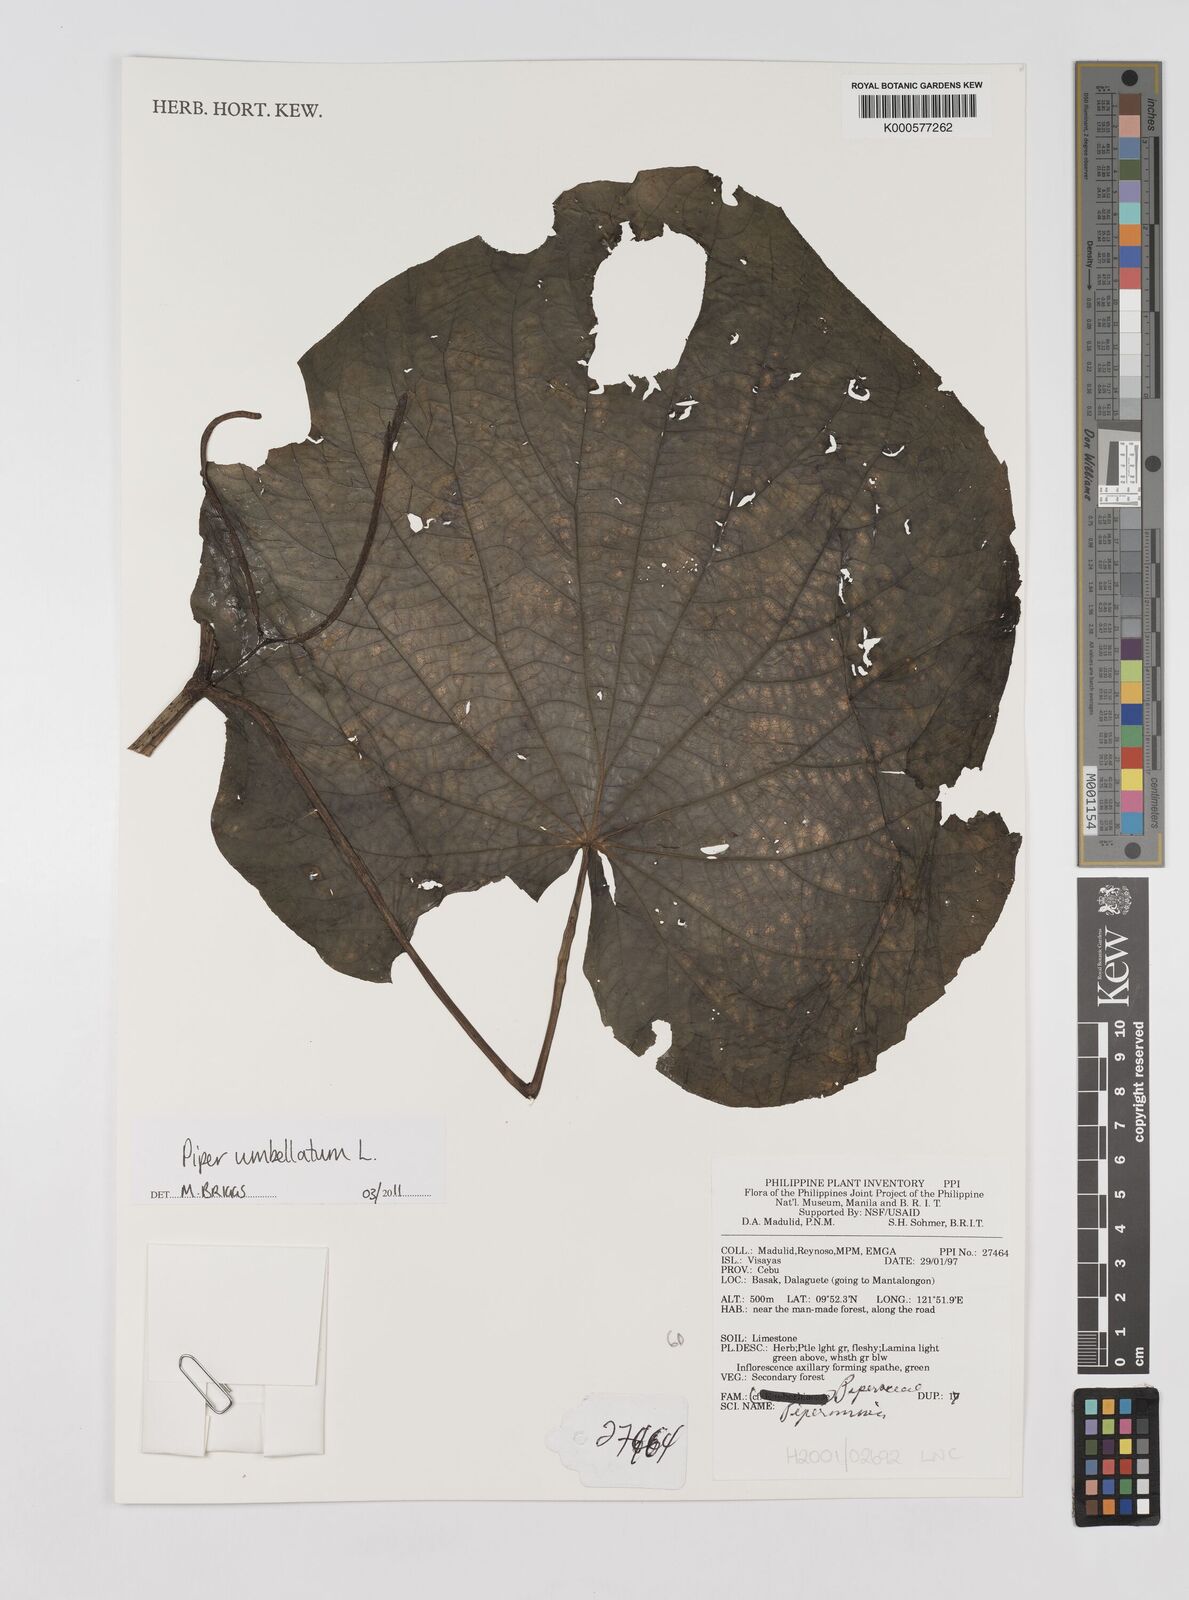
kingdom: Plantae
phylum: Tracheophyta
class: Magnoliopsida
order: Piperales
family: Piperaceae
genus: Piper
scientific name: Piper umbellatum
